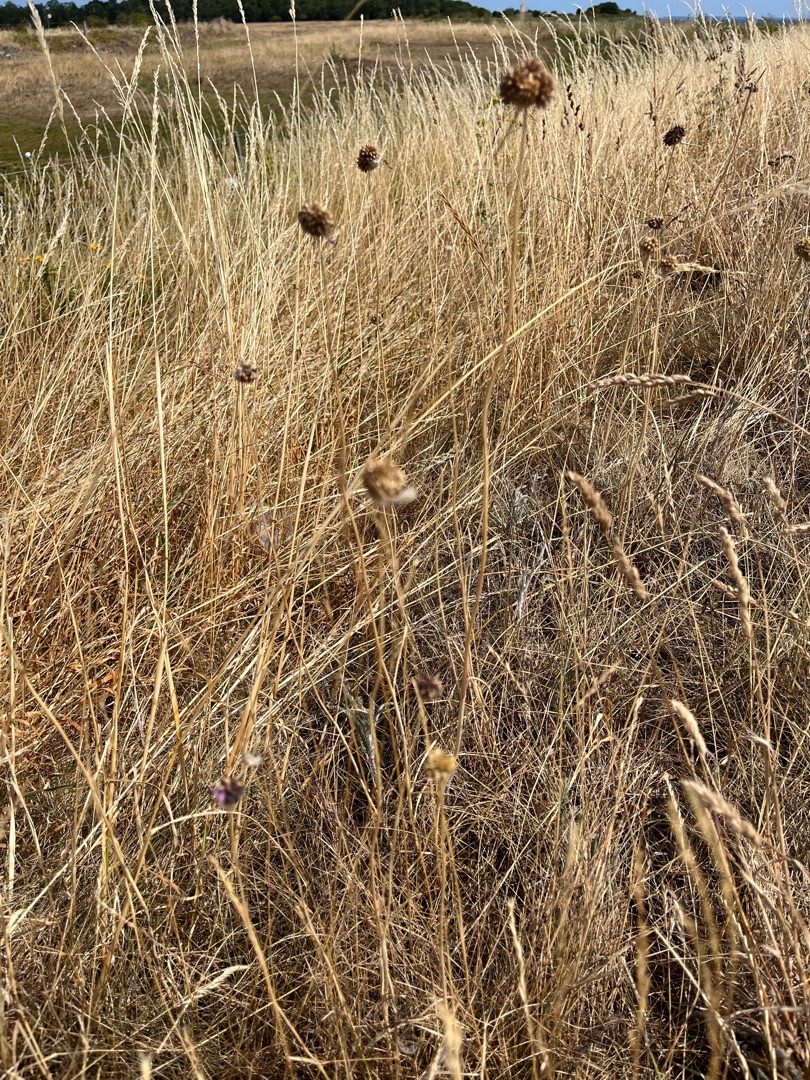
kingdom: Plantae
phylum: Tracheophyta
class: Liliopsida
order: Asparagales
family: Amaryllidaceae
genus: Allium
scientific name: Allium vineale
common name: Sand-løg
